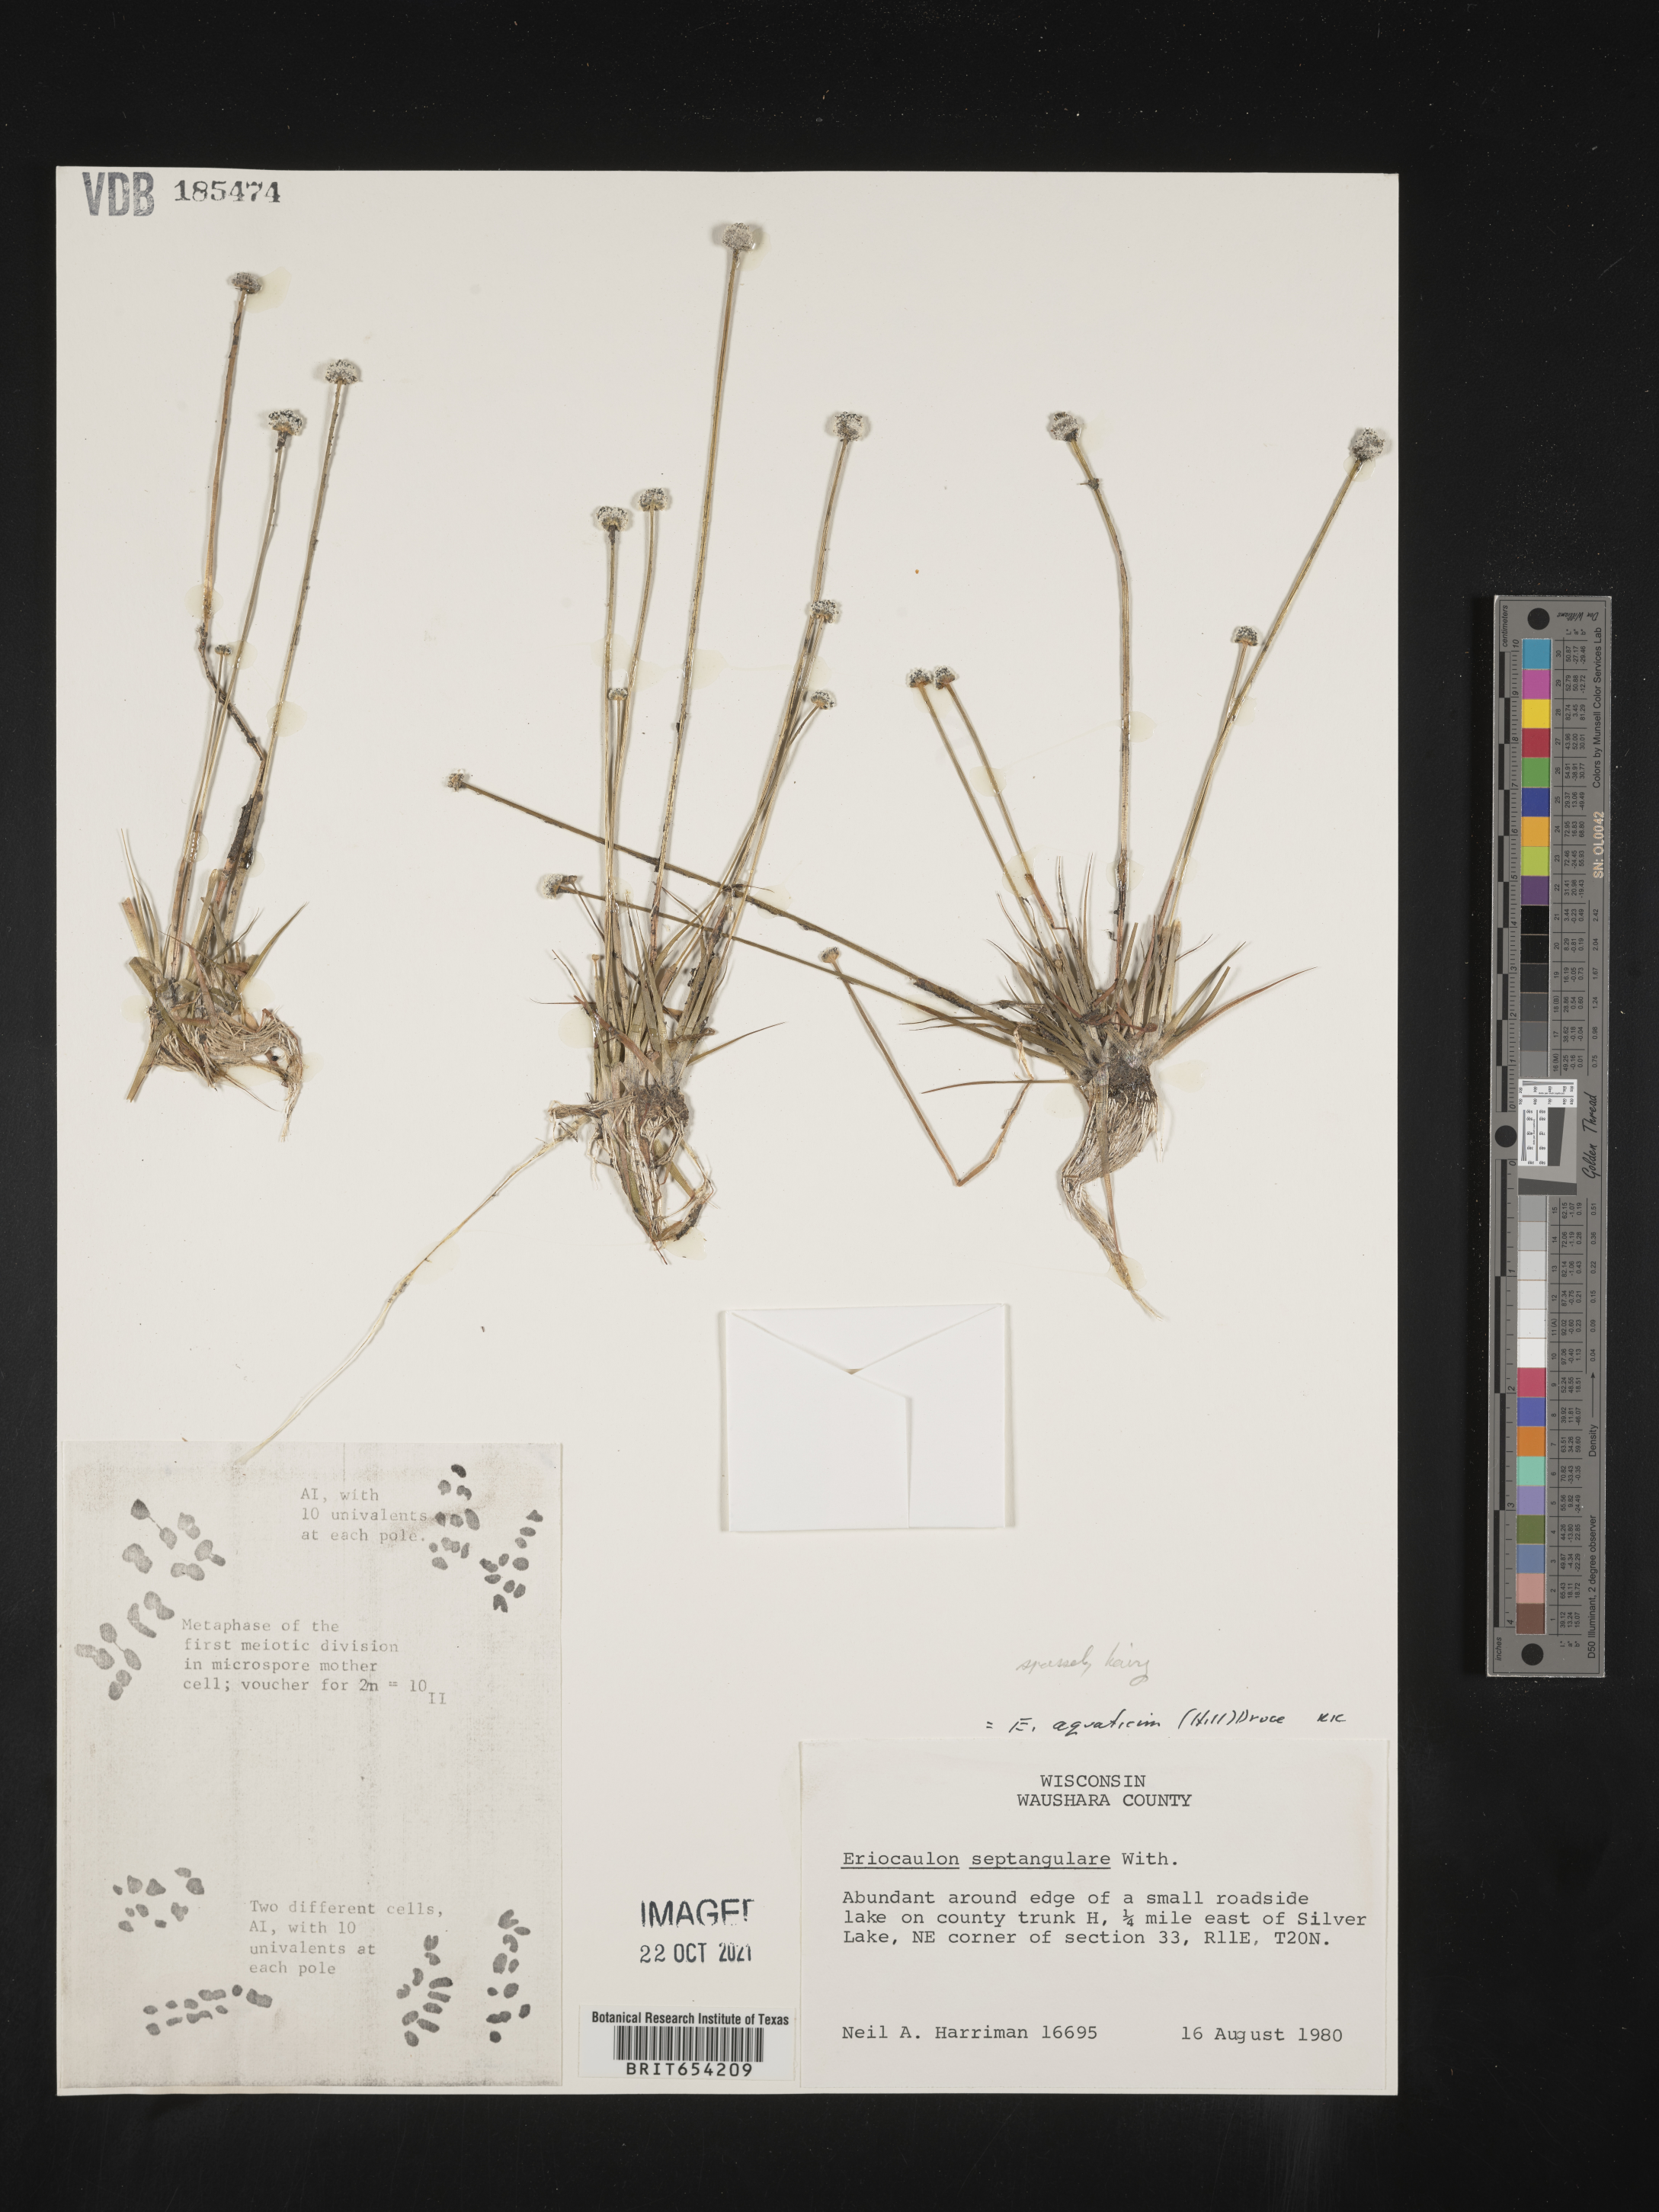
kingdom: Plantae
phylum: Tracheophyta
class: Liliopsida
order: Poales
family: Eriocaulaceae
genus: Eriocaulon
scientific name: Eriocaulon aquaticum
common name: Pipewort
